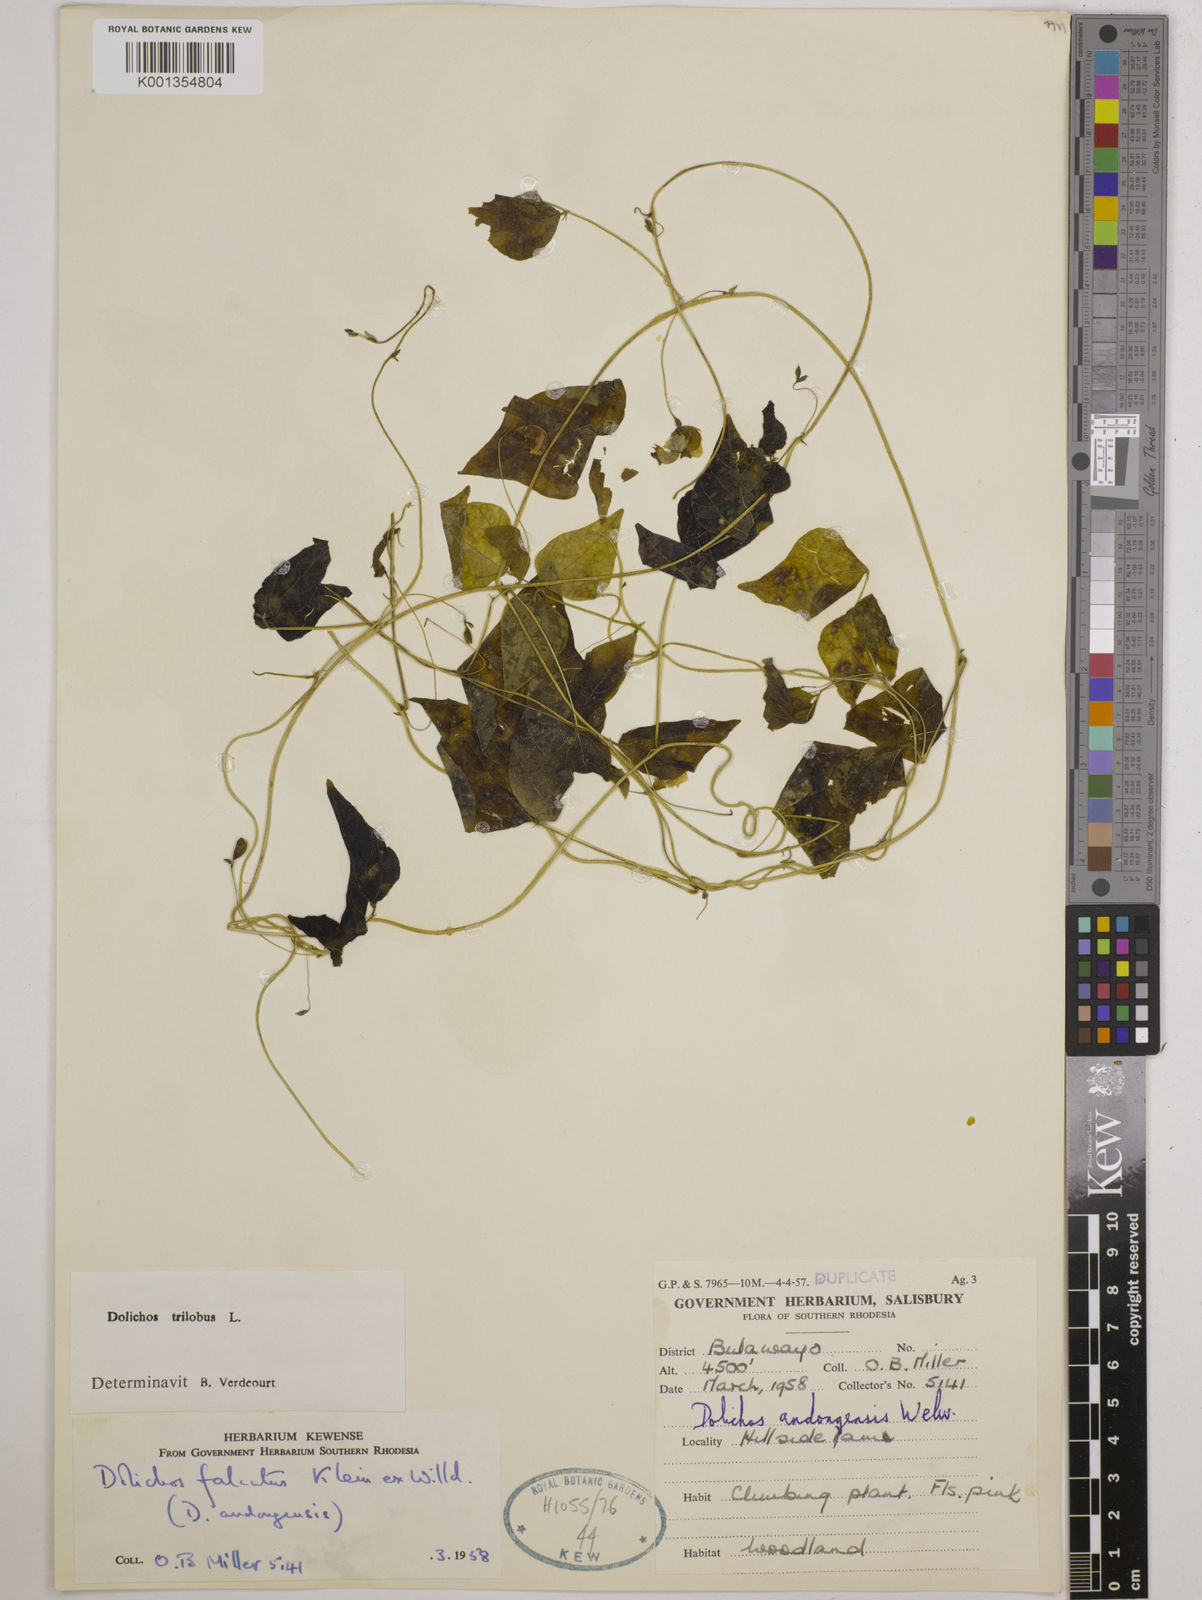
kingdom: Plantae
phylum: Tracheophyta
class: Magnoliopsida
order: Fabales
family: Fabaceae
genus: Dolichos
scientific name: Dolichos
